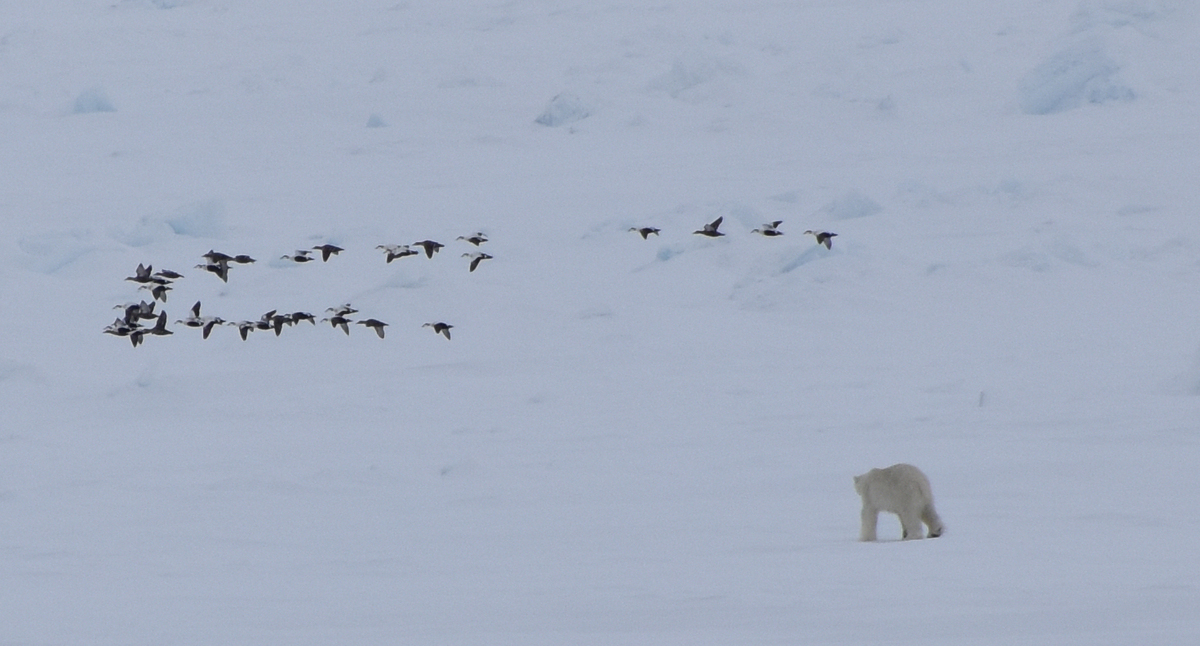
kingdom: Animalia
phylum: Chordata
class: Mammalia
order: Carnivora
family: Ursidae
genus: Ursus
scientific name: Ursus maritimus
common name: Polar Bear
